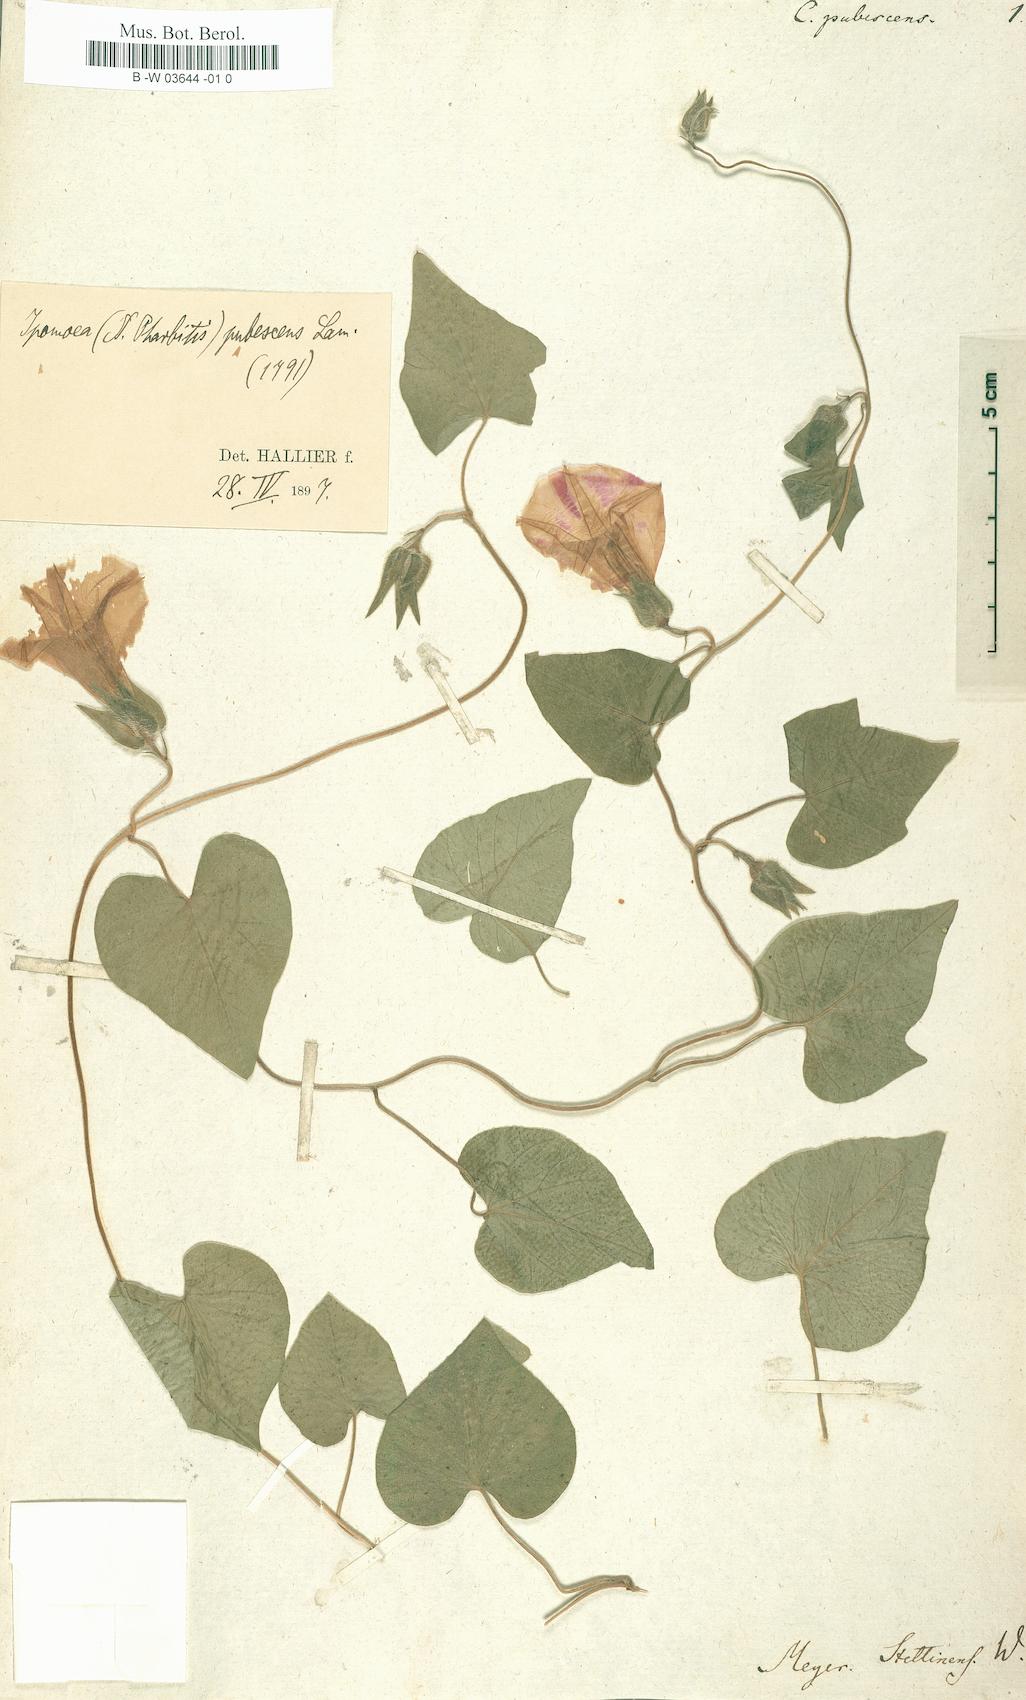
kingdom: Plantae
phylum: Tracheophyta
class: Magnoliopsida
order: Solanales
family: Convolvulaceae
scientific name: Convolvulaceae
